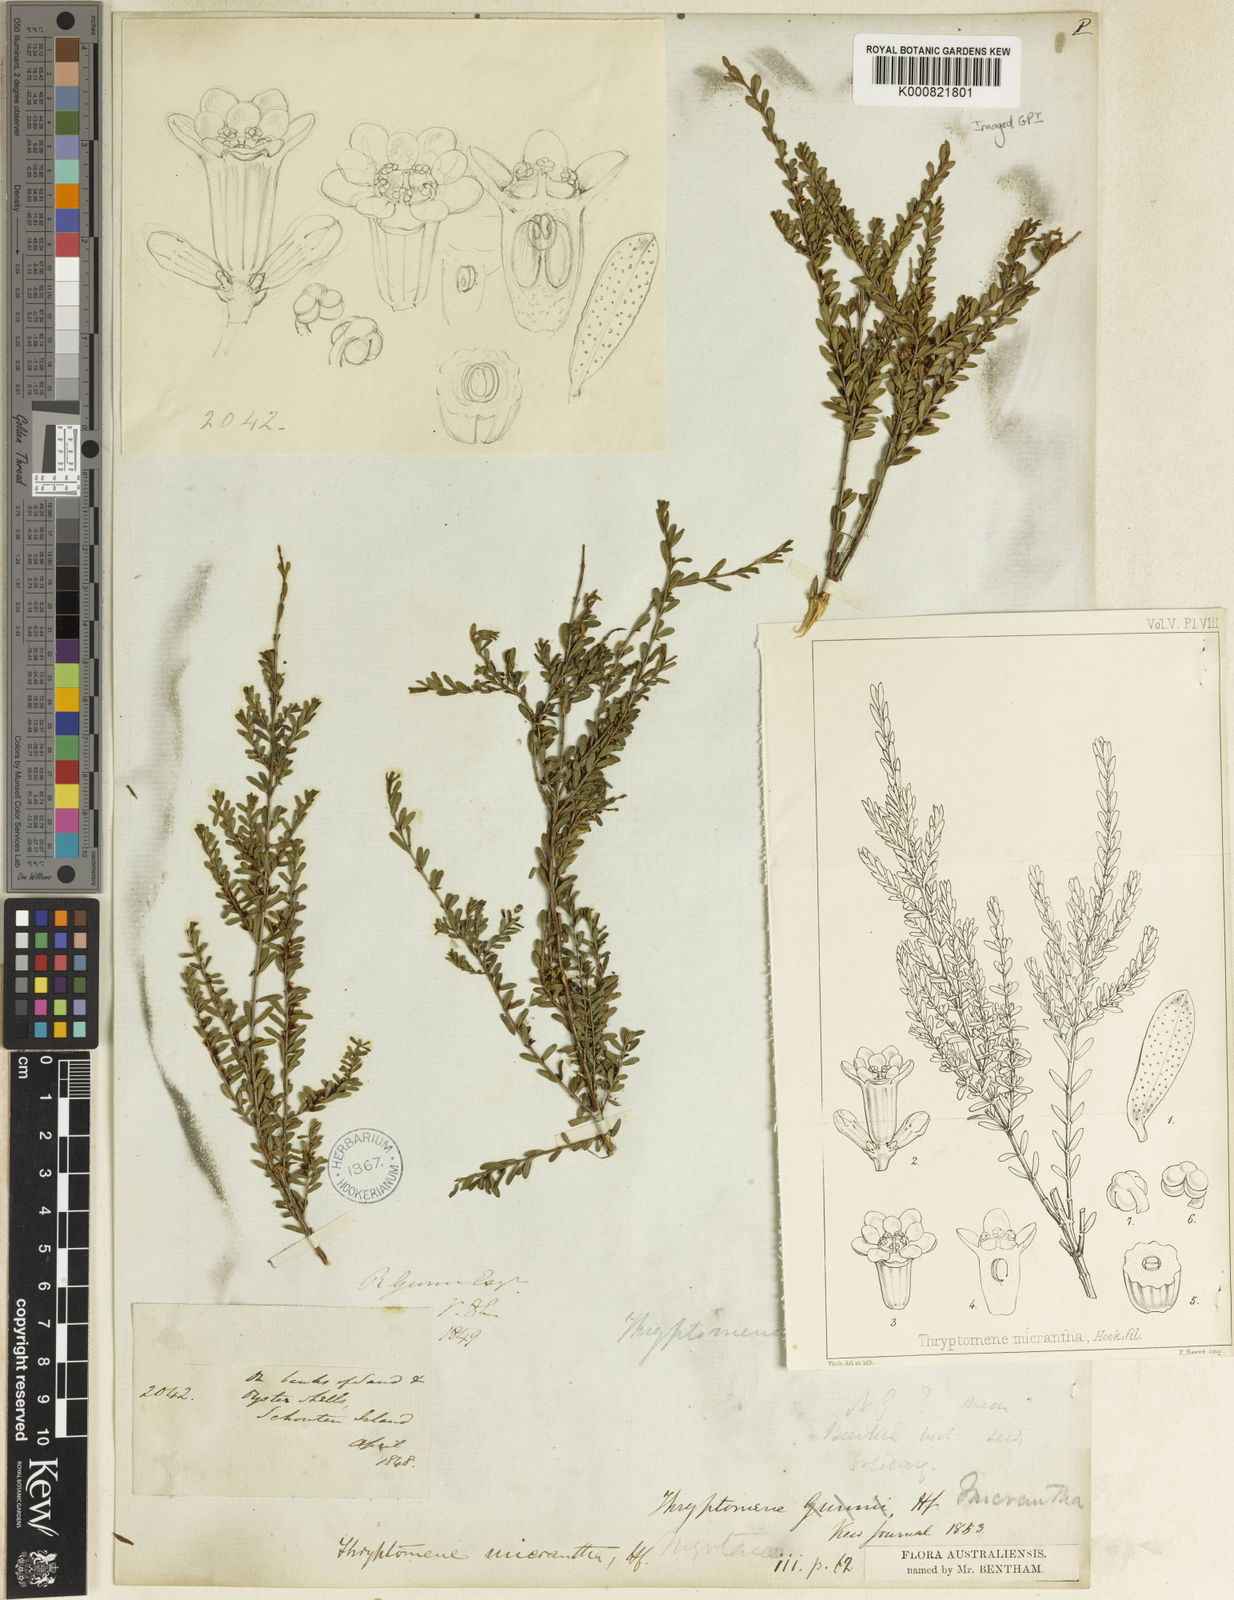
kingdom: Plantae
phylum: Tracheophyta
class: Magnoliopsida
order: Myrtales
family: Myrtaceae
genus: Thryptomene
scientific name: Thryptomene micrantha
